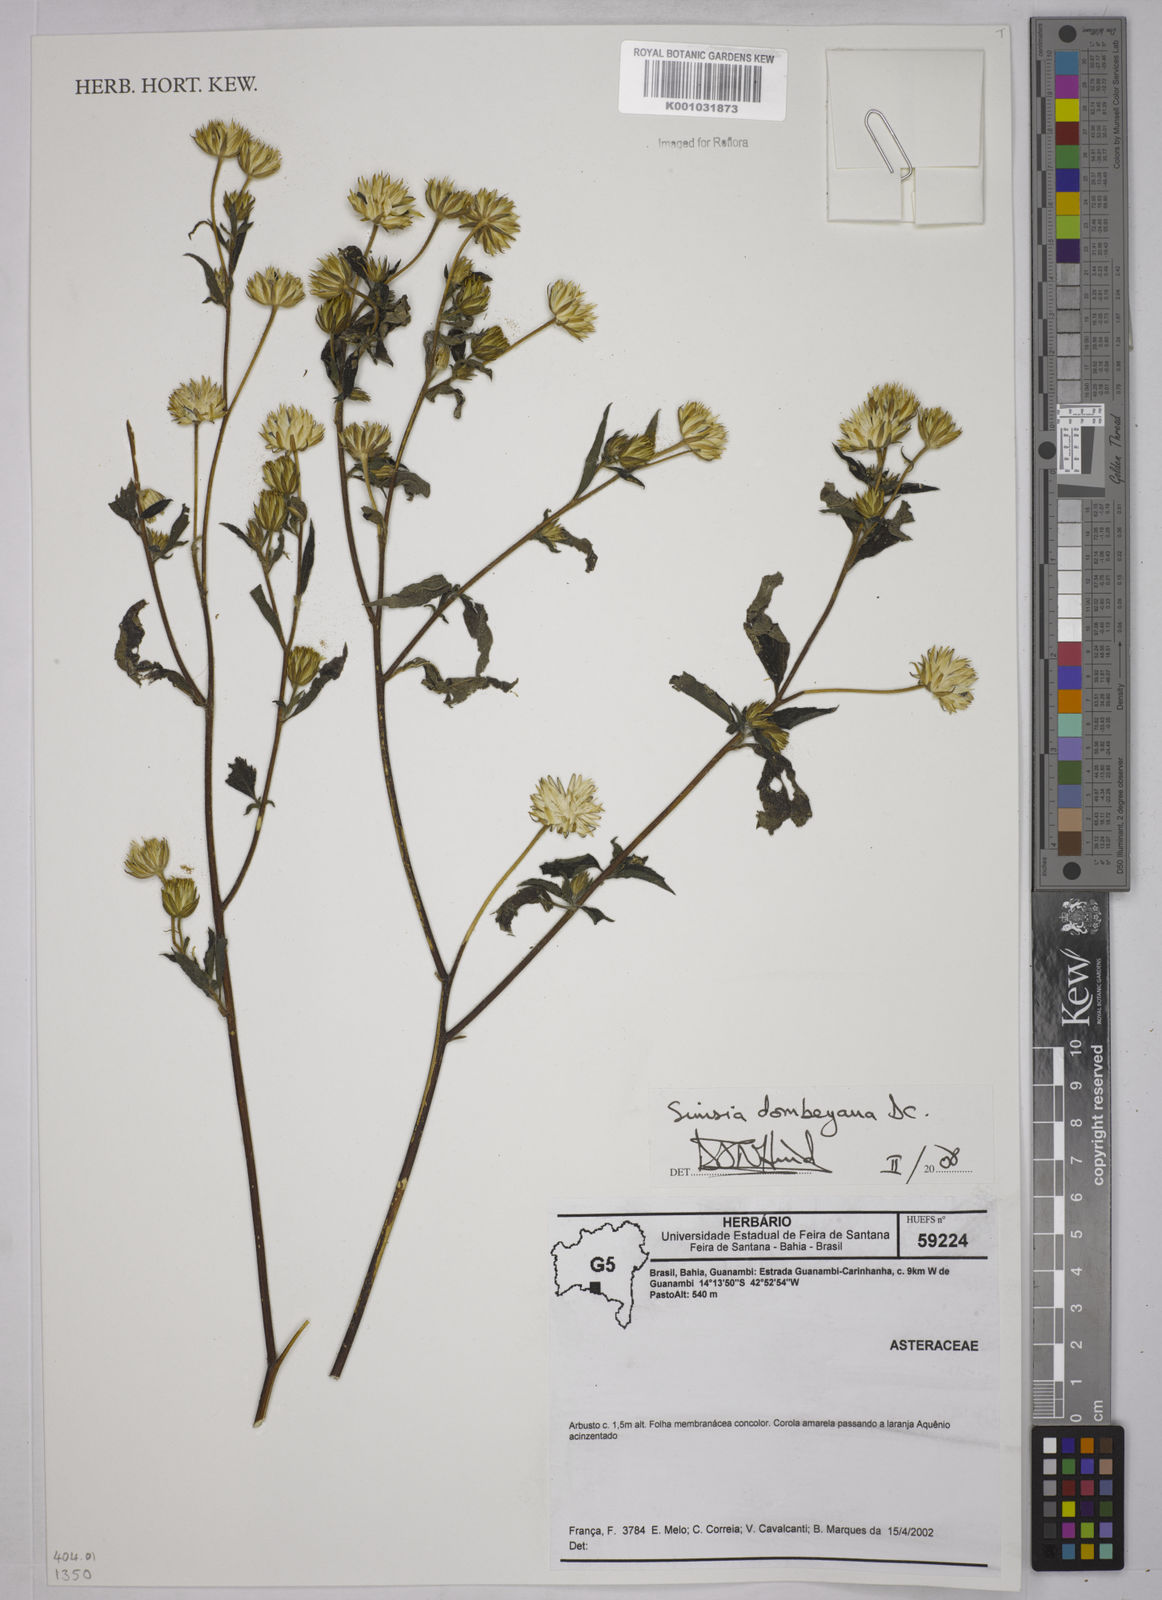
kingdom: Plantae
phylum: Tracheophyta
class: Magnoliopsida
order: Asterales
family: Asteraceae
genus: Simsia
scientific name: Simsia dombeyana
